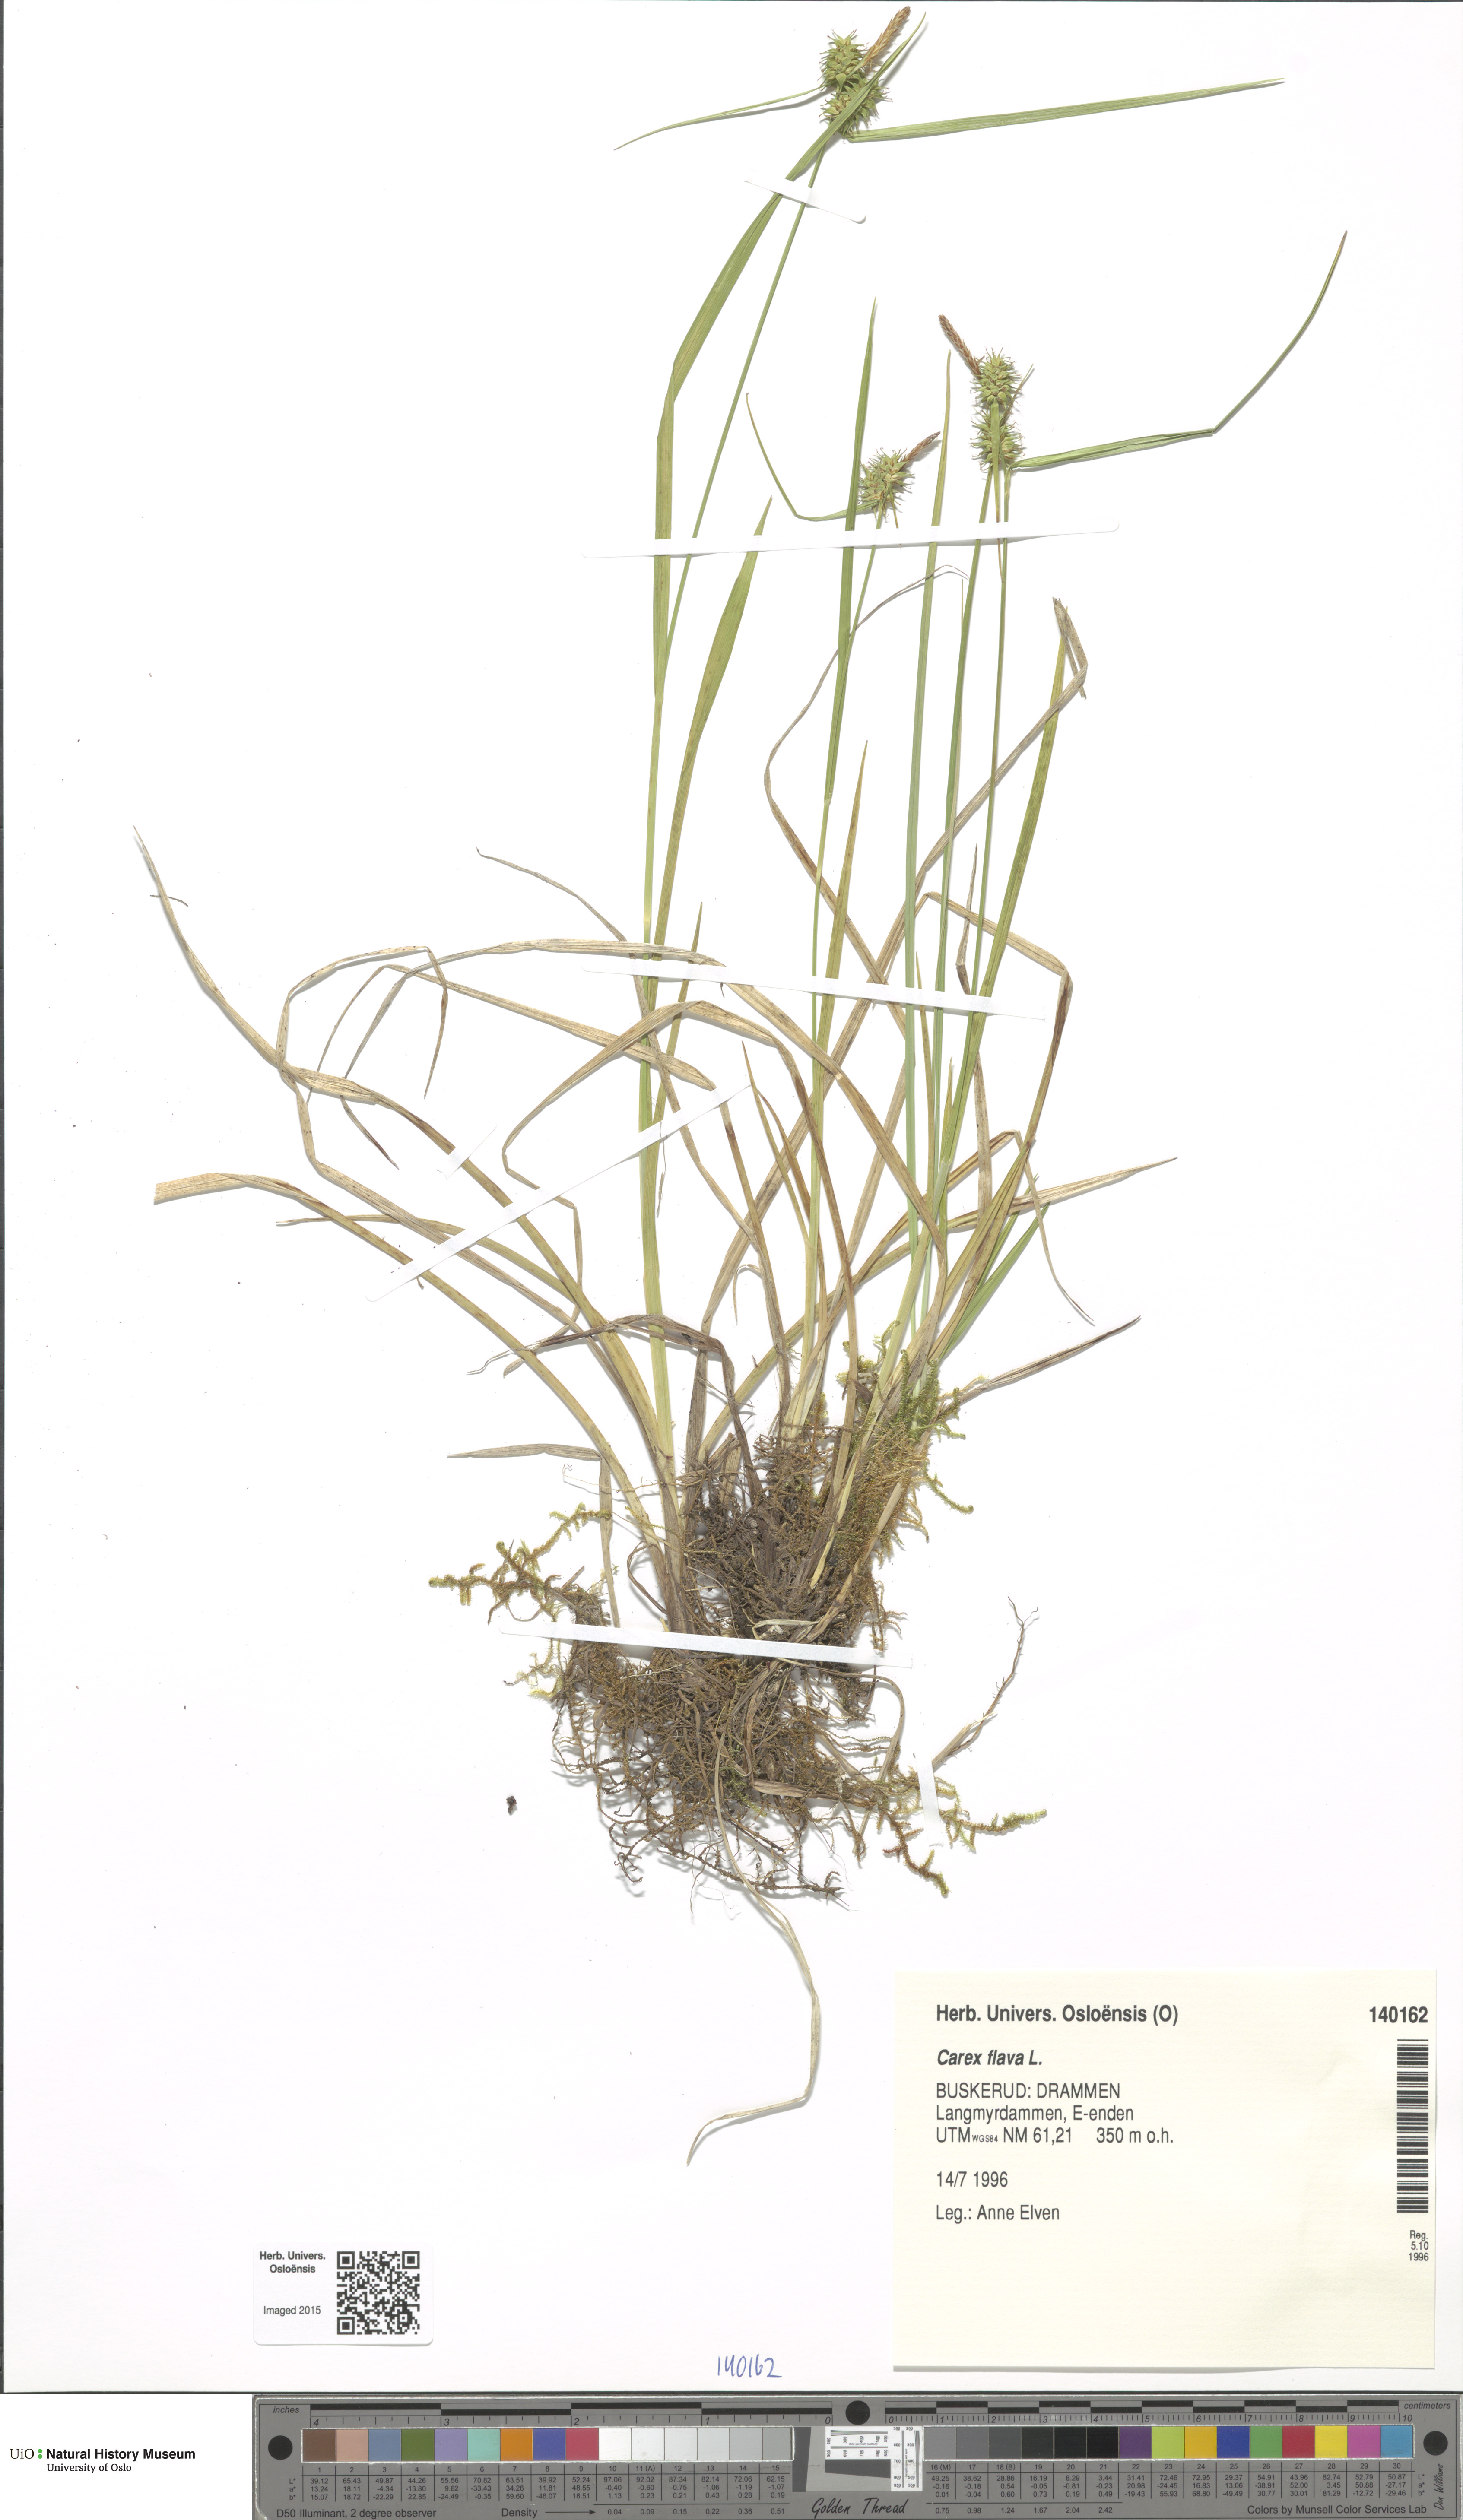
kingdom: Plantae
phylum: Tracheophyta
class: Liliopsida
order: Poales
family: Cyperaceae
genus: Carex
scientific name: Carex flava
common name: Large yellow-sedge
